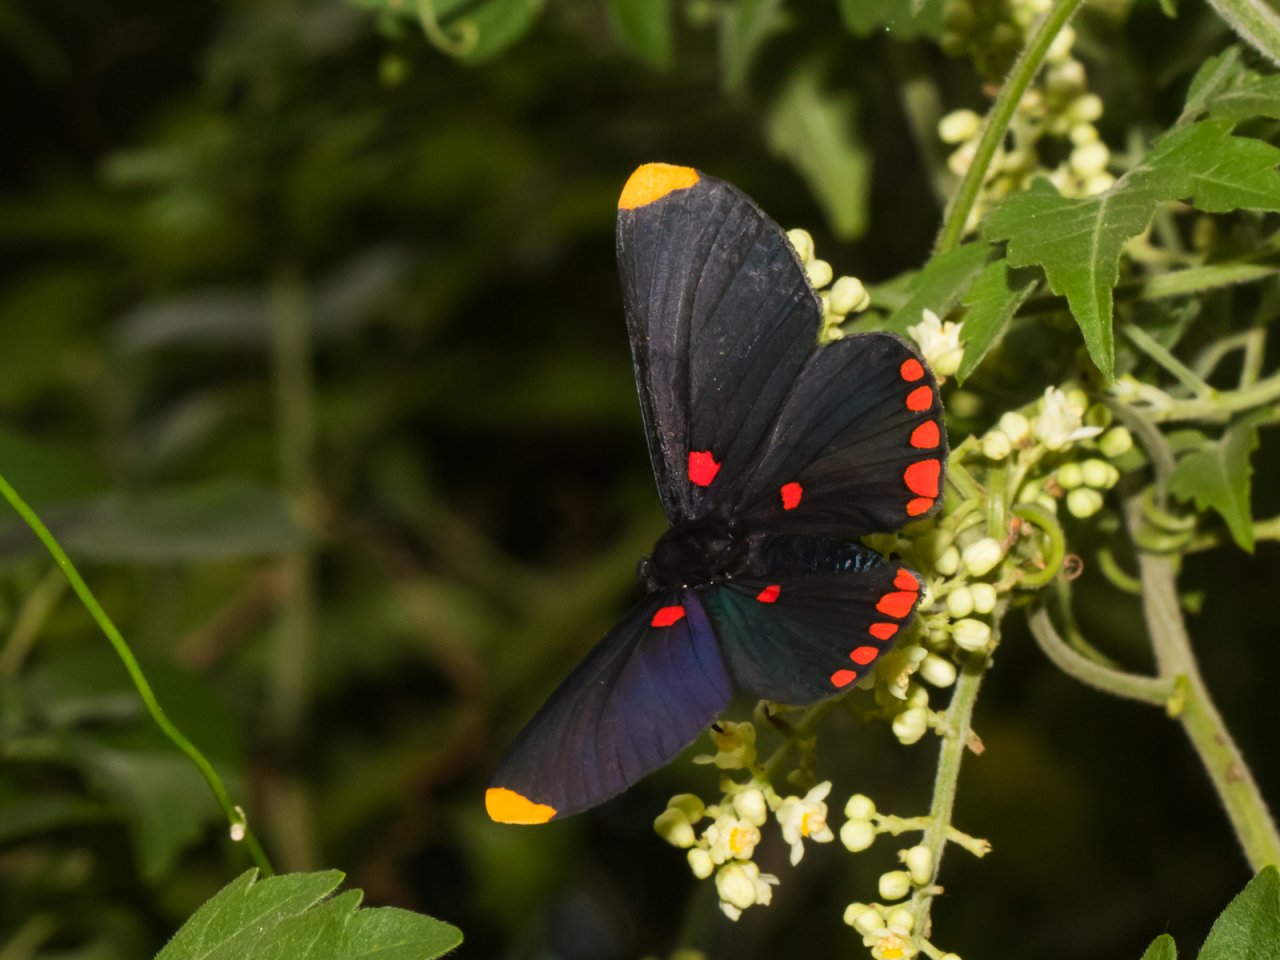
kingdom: Animalia
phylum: Arthropoda
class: Insecta
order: Lepidoptera
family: Lycaenidae
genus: Melanis
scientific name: Melanis pixe
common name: Red-bordered Pixie
